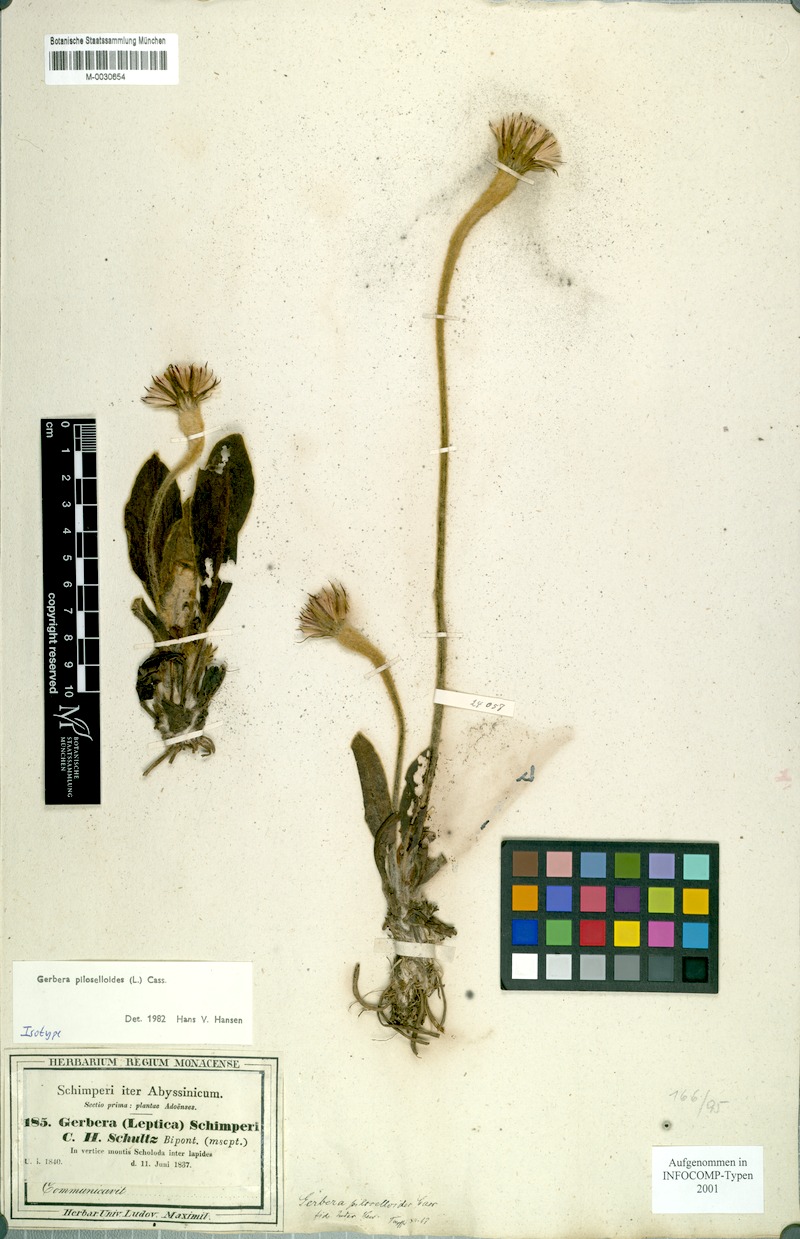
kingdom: Plantae
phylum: Tracheophyta
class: Magnoliopsida
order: Asterales
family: Asteraceae
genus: Piloselloides
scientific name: Piloselloides hirsuta
